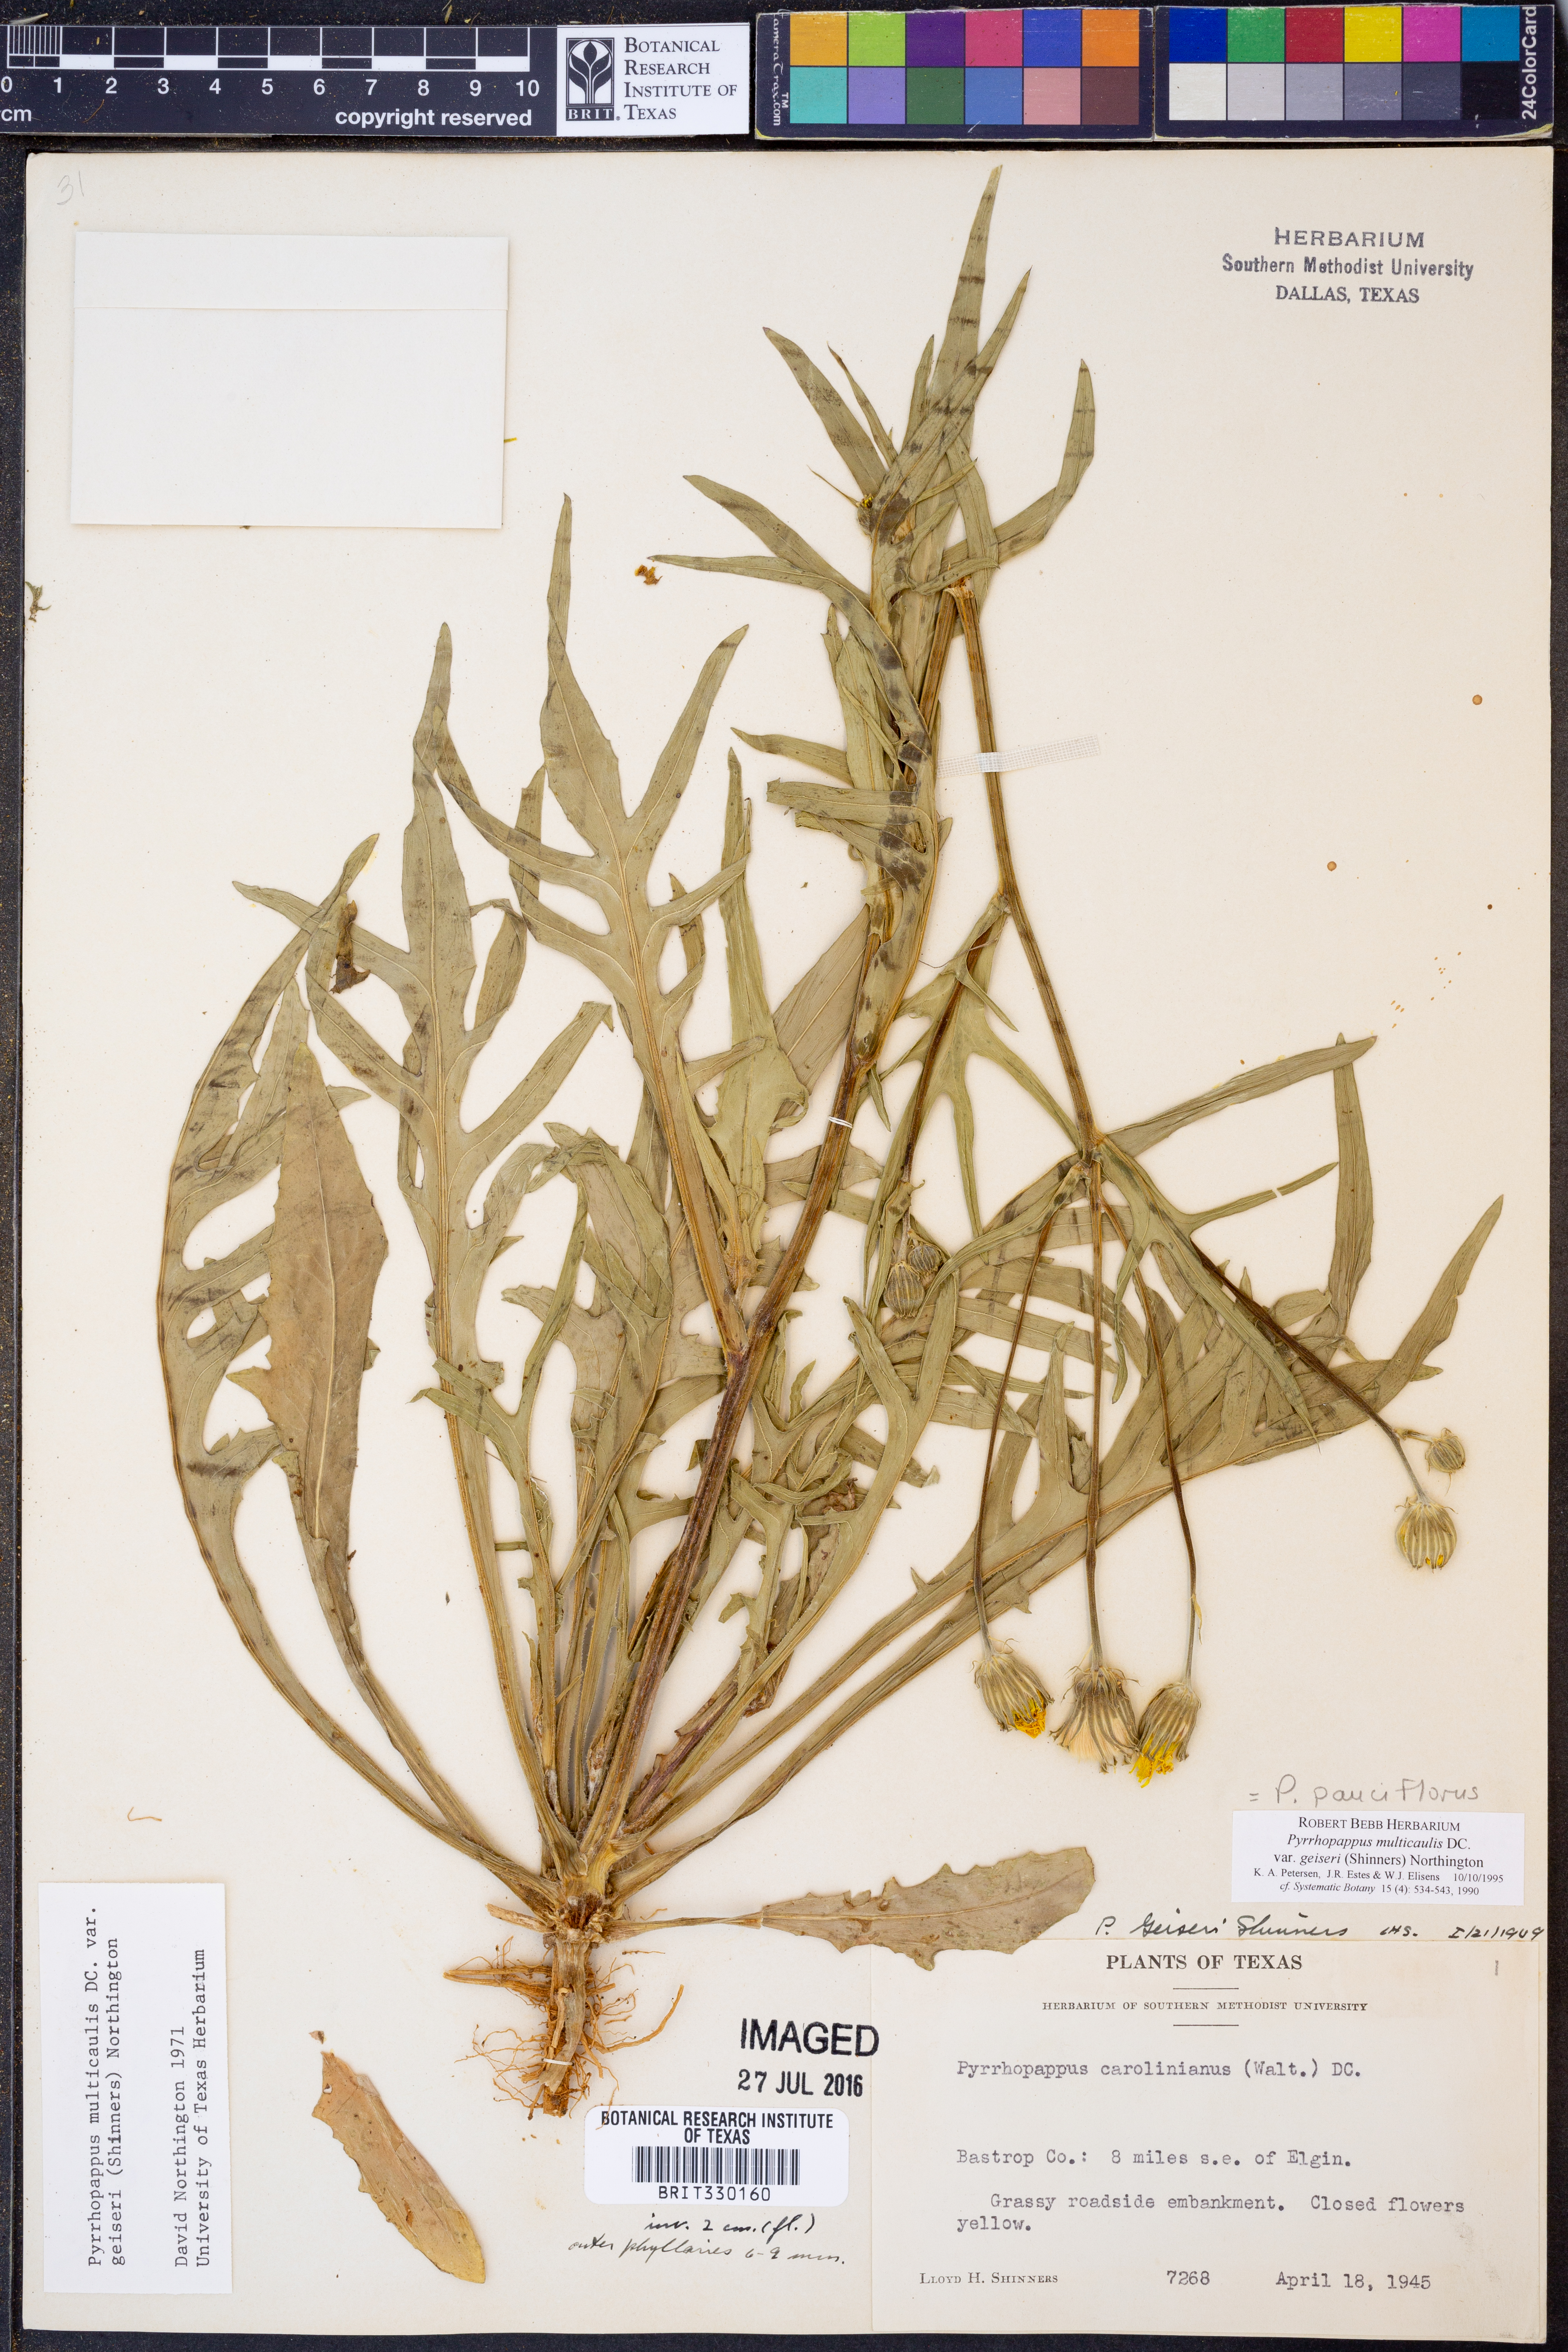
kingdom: Plantae
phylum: Tracheophyta
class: Magnoliopsida
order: Asterales
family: Asteraceae
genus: Pyrrhopappus
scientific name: Pyrrhopappus pauciflorus
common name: Texas false dandelion
